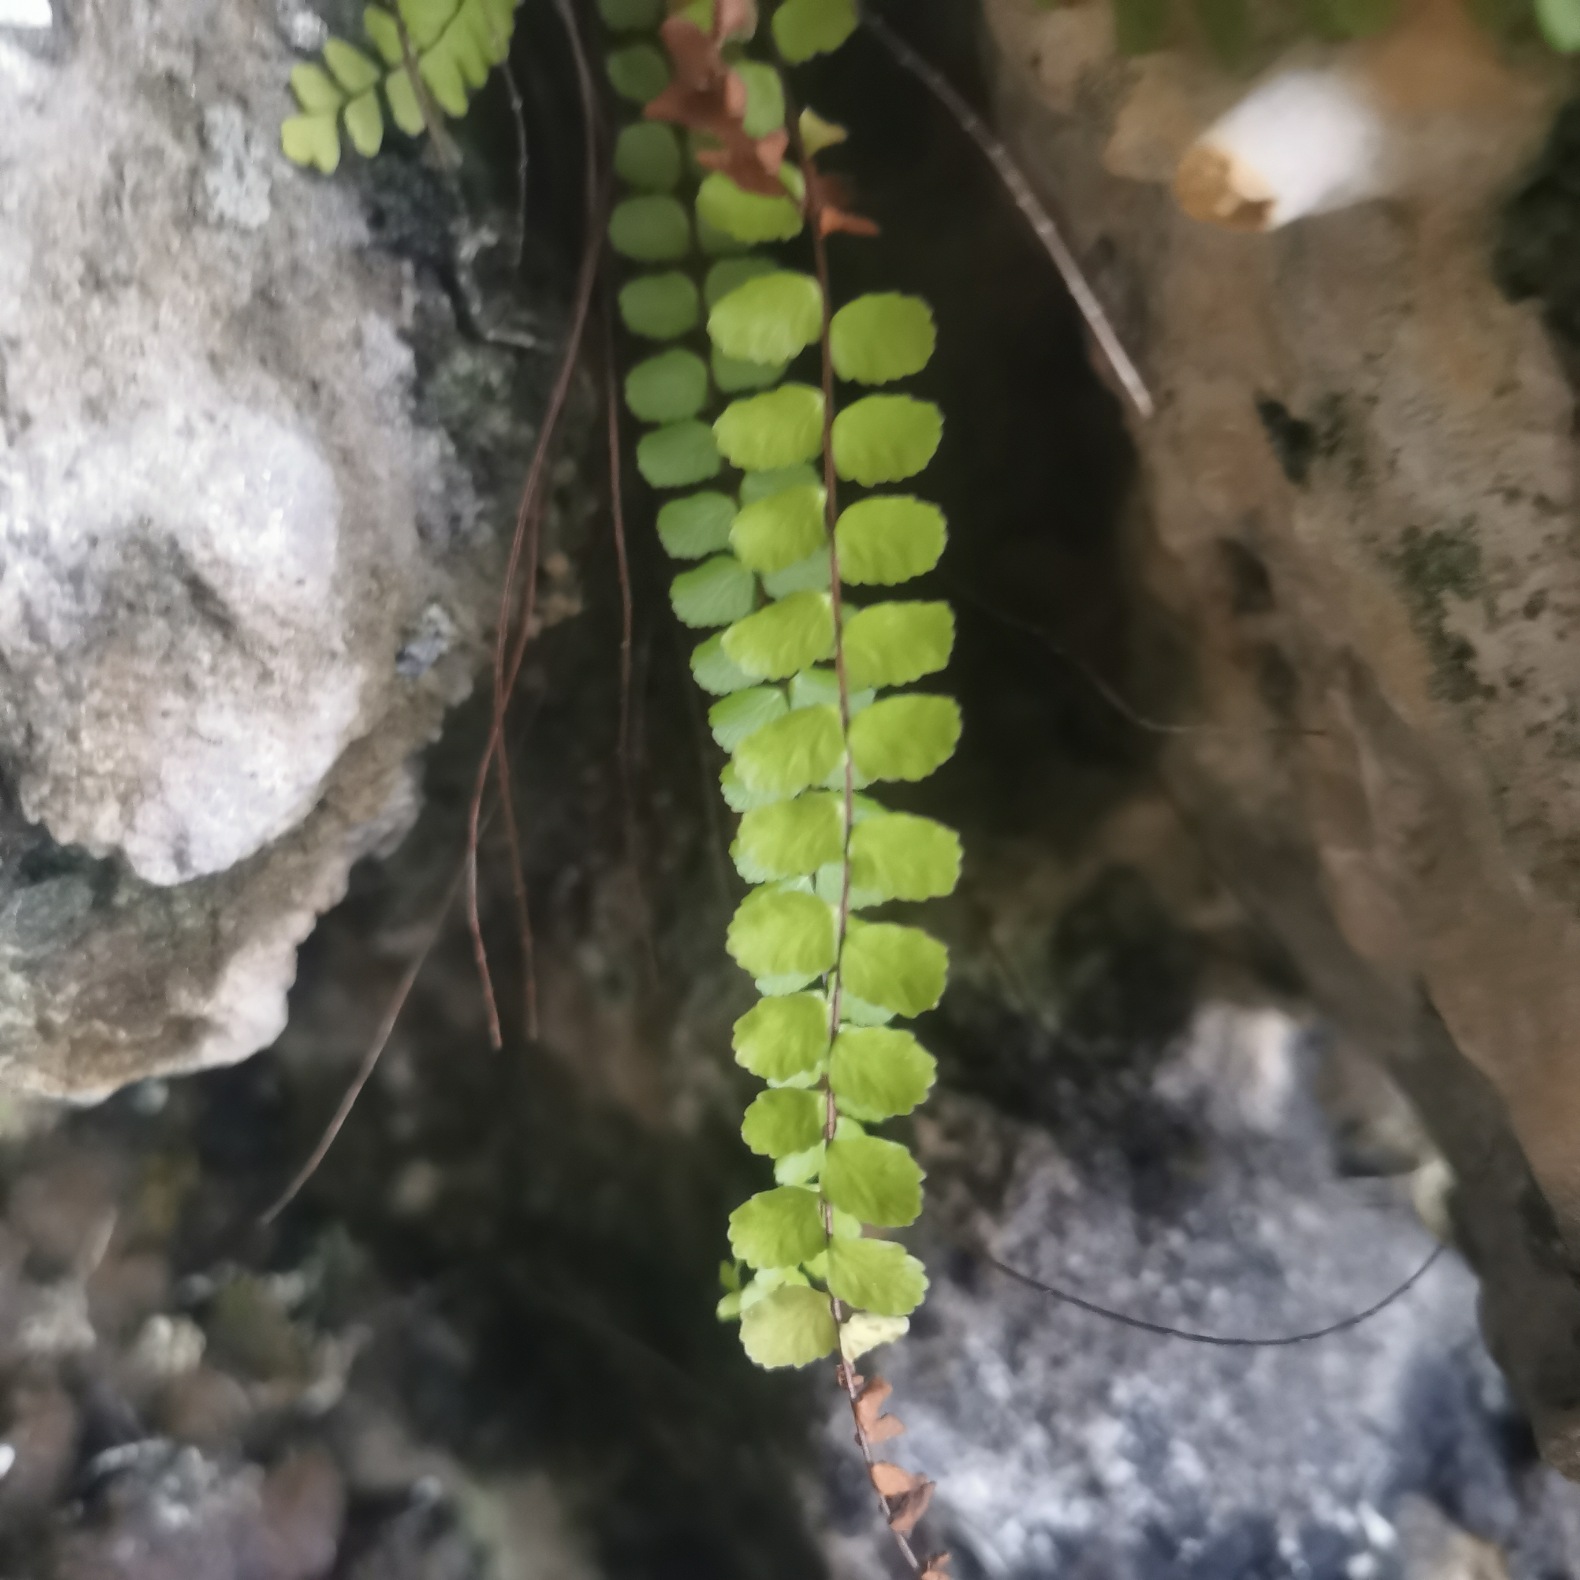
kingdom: Plantae
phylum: Tracheophyta
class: Polypodiopsida
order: Polypodiales
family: Aspleniaceae
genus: Asplenium
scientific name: Asplenium quadrivalens
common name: Kalk-radeløv
